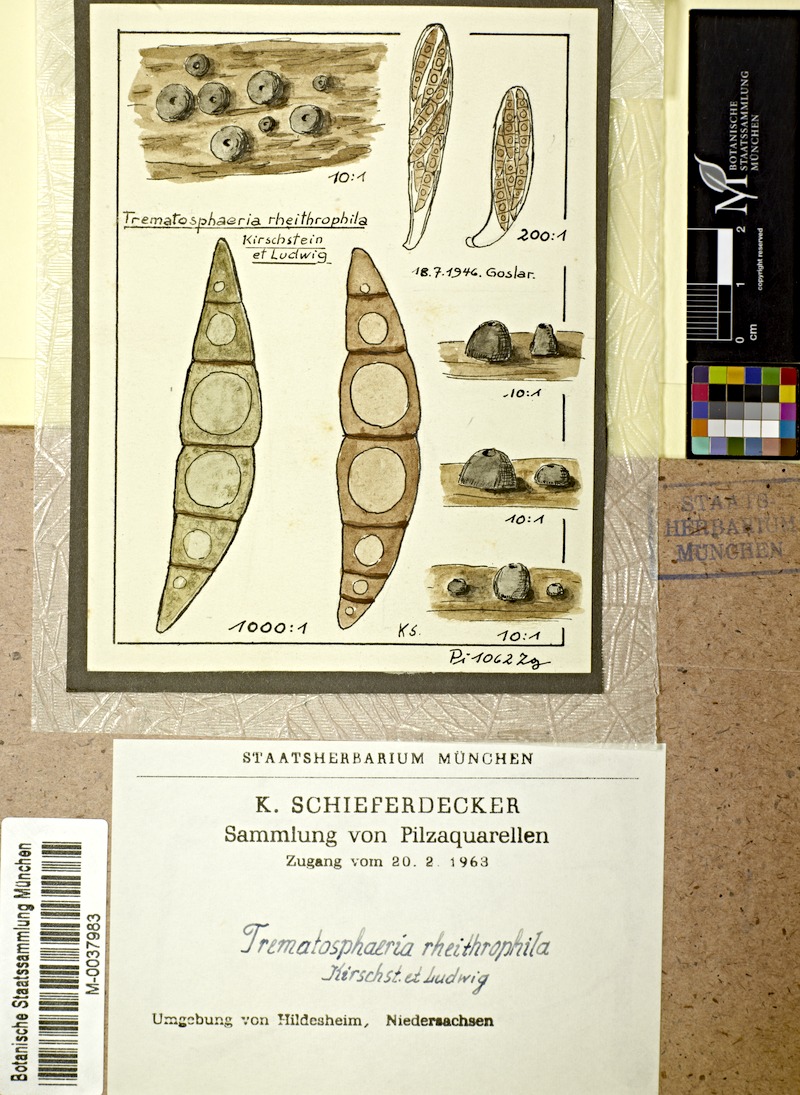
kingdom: Fungi
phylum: Ascomycota
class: Dothideomycetes
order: Pleosporales
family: Trematosphaeriaceae
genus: Trematosphaeria
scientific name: Trematosphaeria rheithrophila
